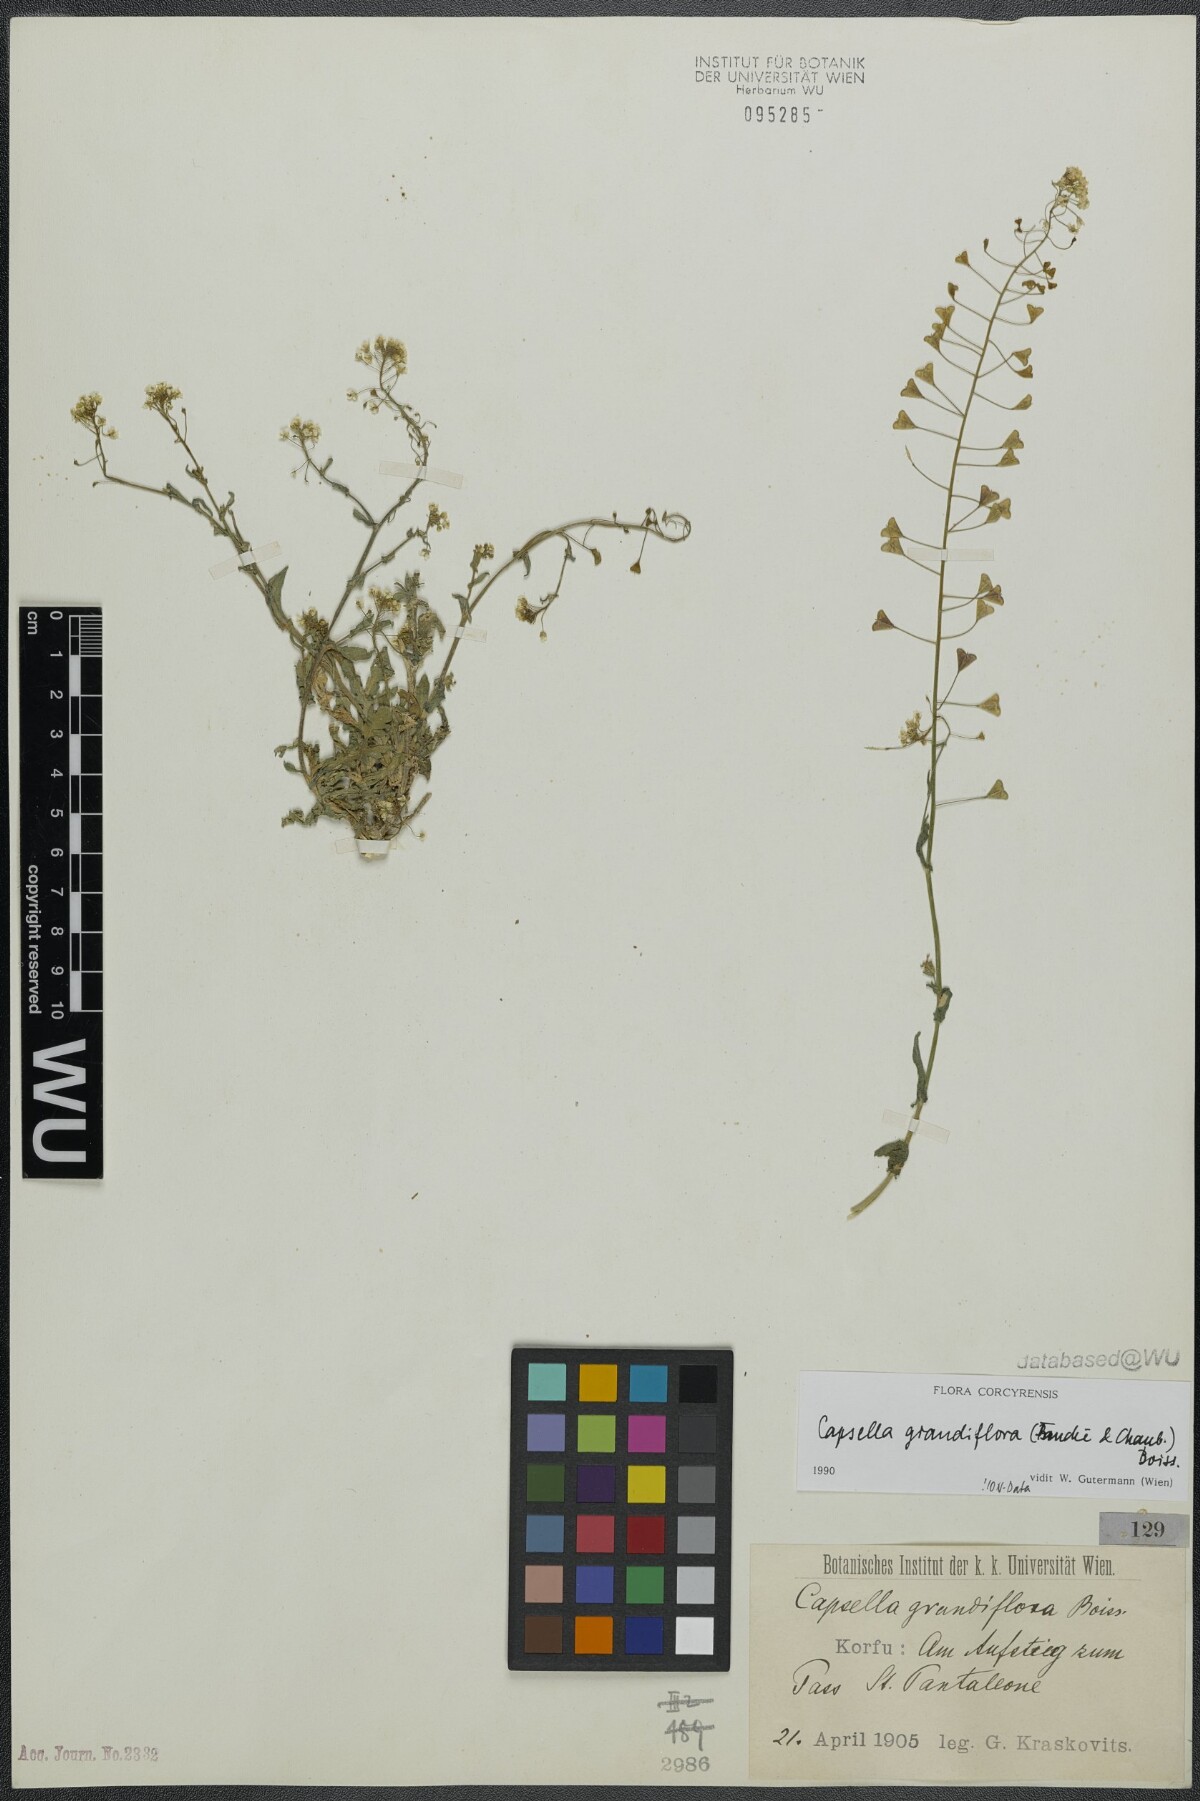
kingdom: Plantae
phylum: Tracheophyta
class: Magnoliopsida
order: Brassicales
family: Brassicaceae
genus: Capsella
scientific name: Capsella grandiflora
